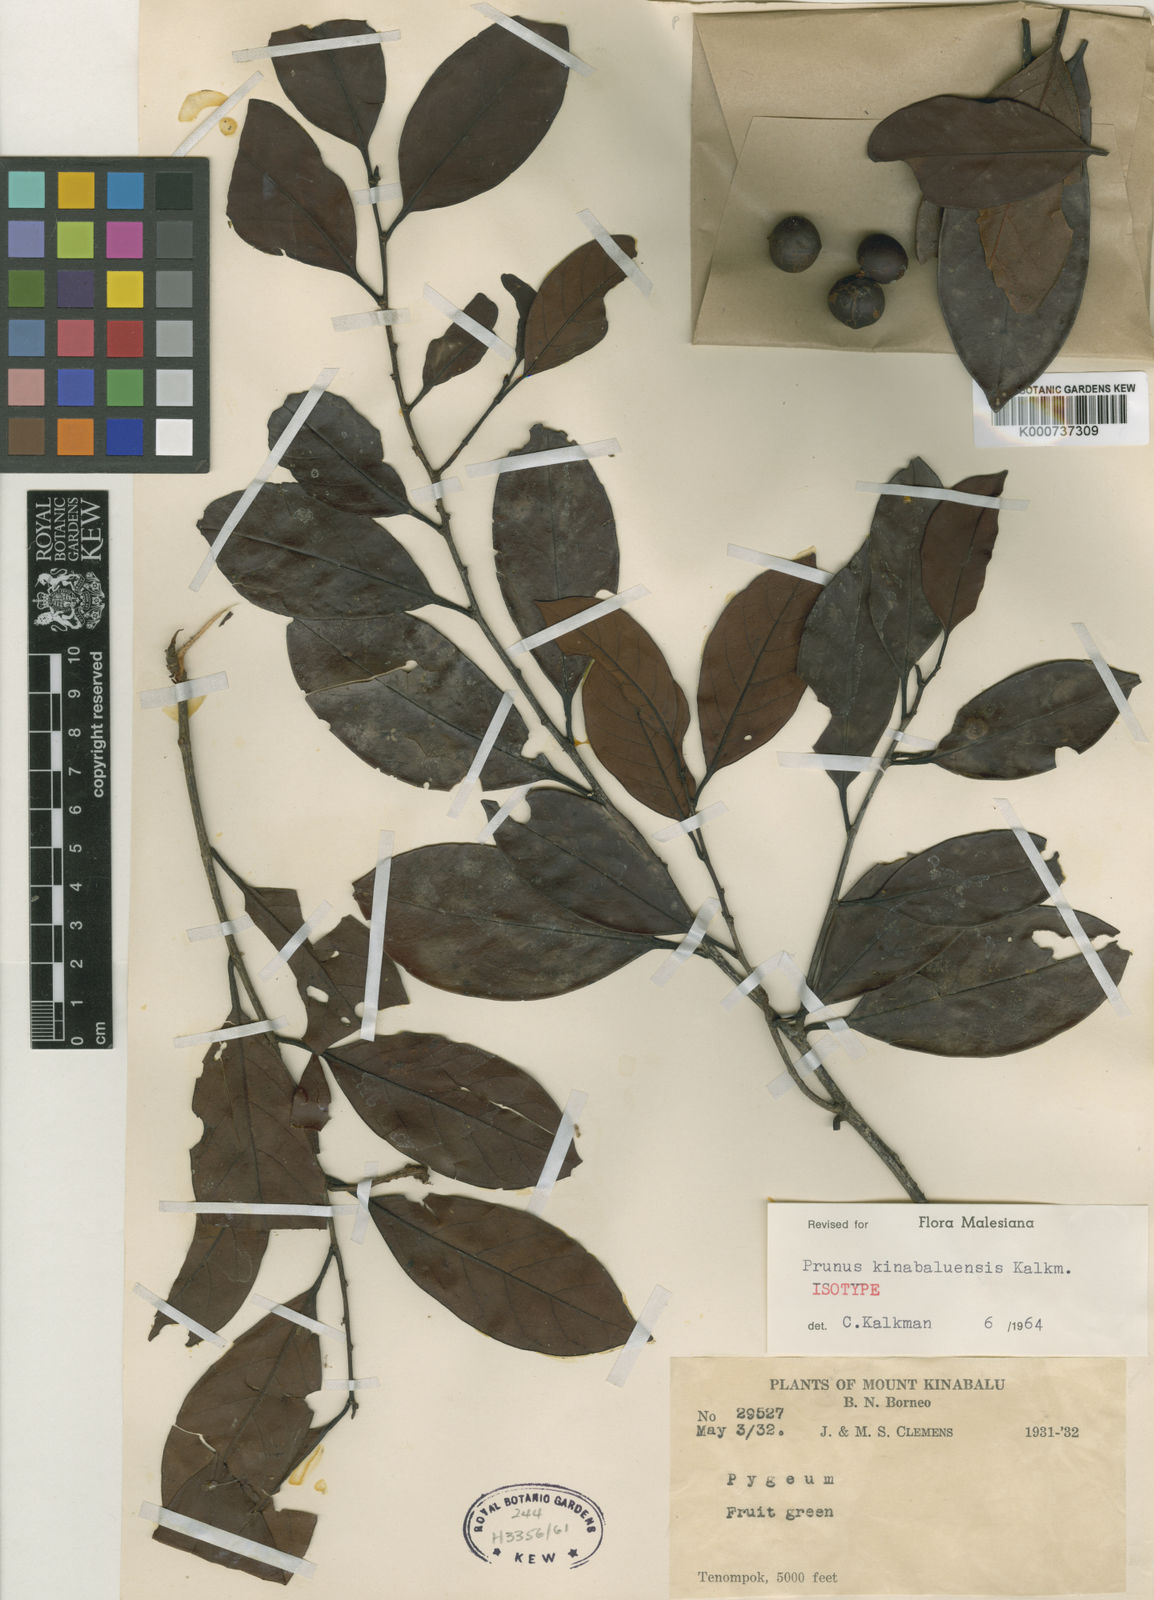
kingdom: Plantae
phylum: Tracheophyta
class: Magnoliopsida
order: Rosales
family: Rosaceae
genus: Prunus
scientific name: Prunus kinabaluensis
